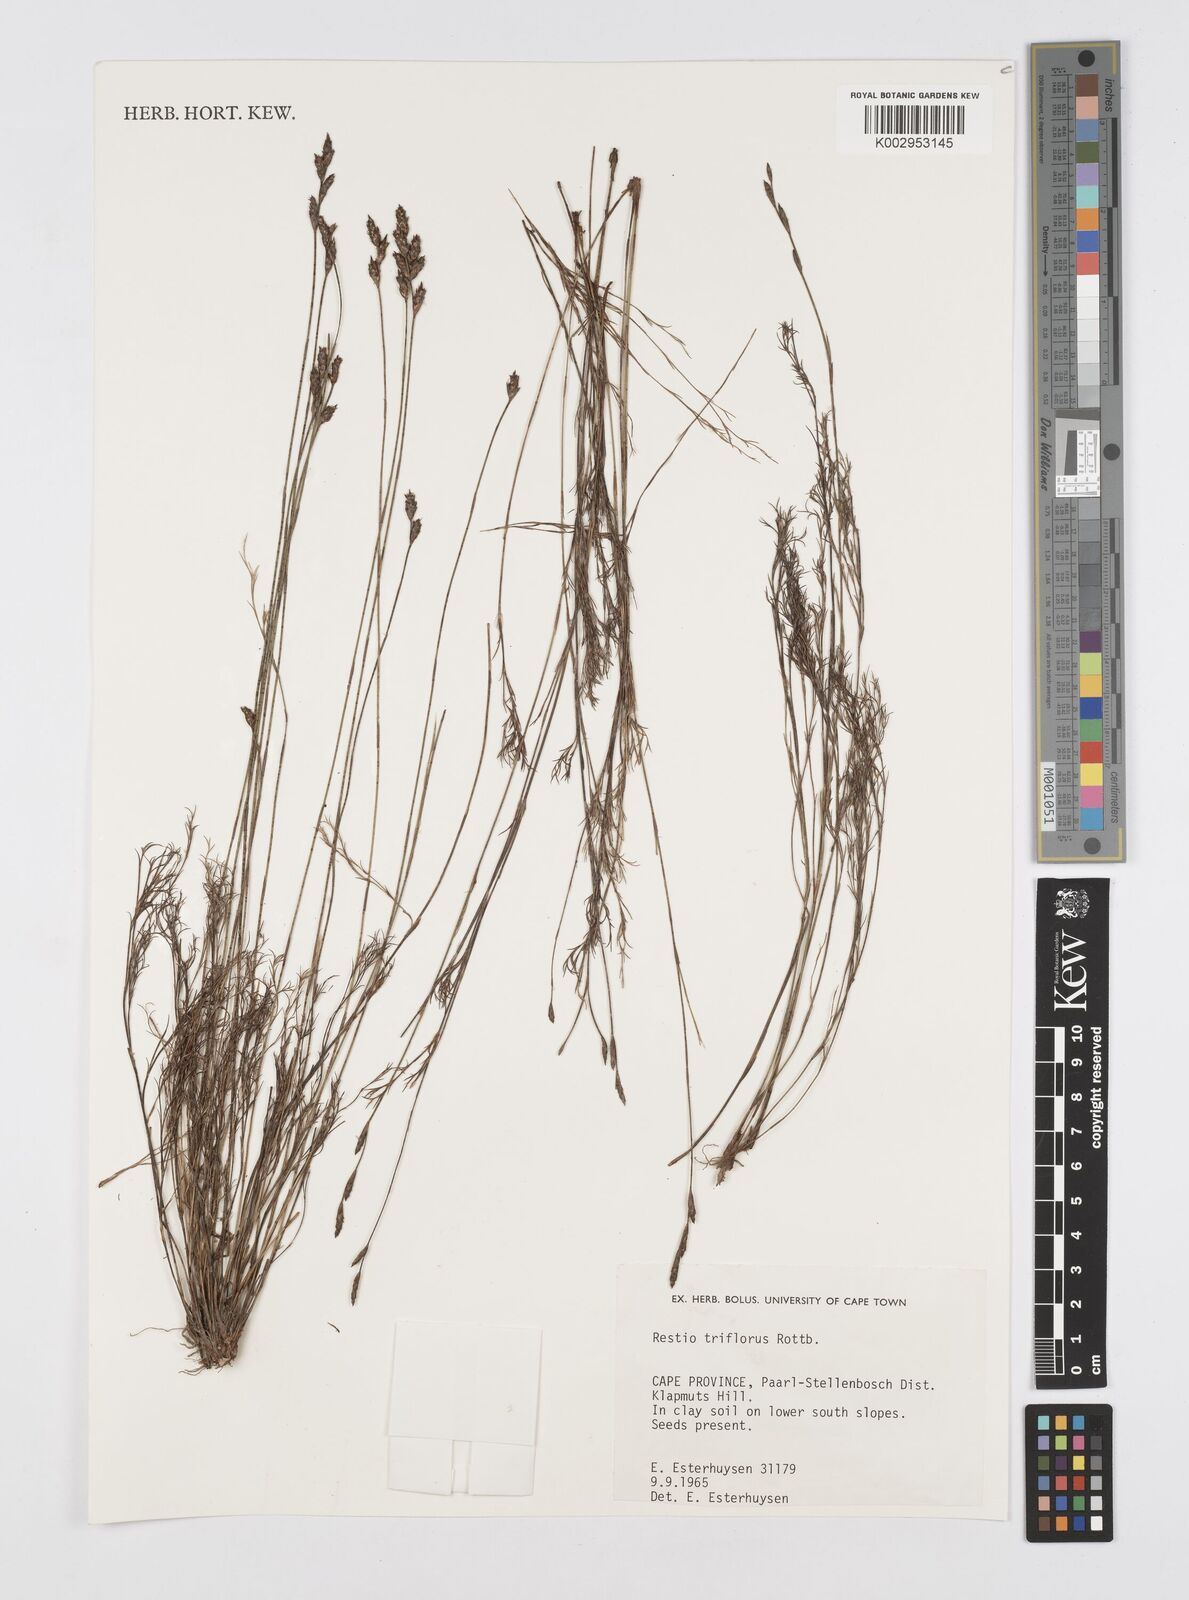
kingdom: Plantae
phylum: Tracheophyta
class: Liliopsida
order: Poales
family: Restionaceae
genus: Restio
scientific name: Restio triflorus
